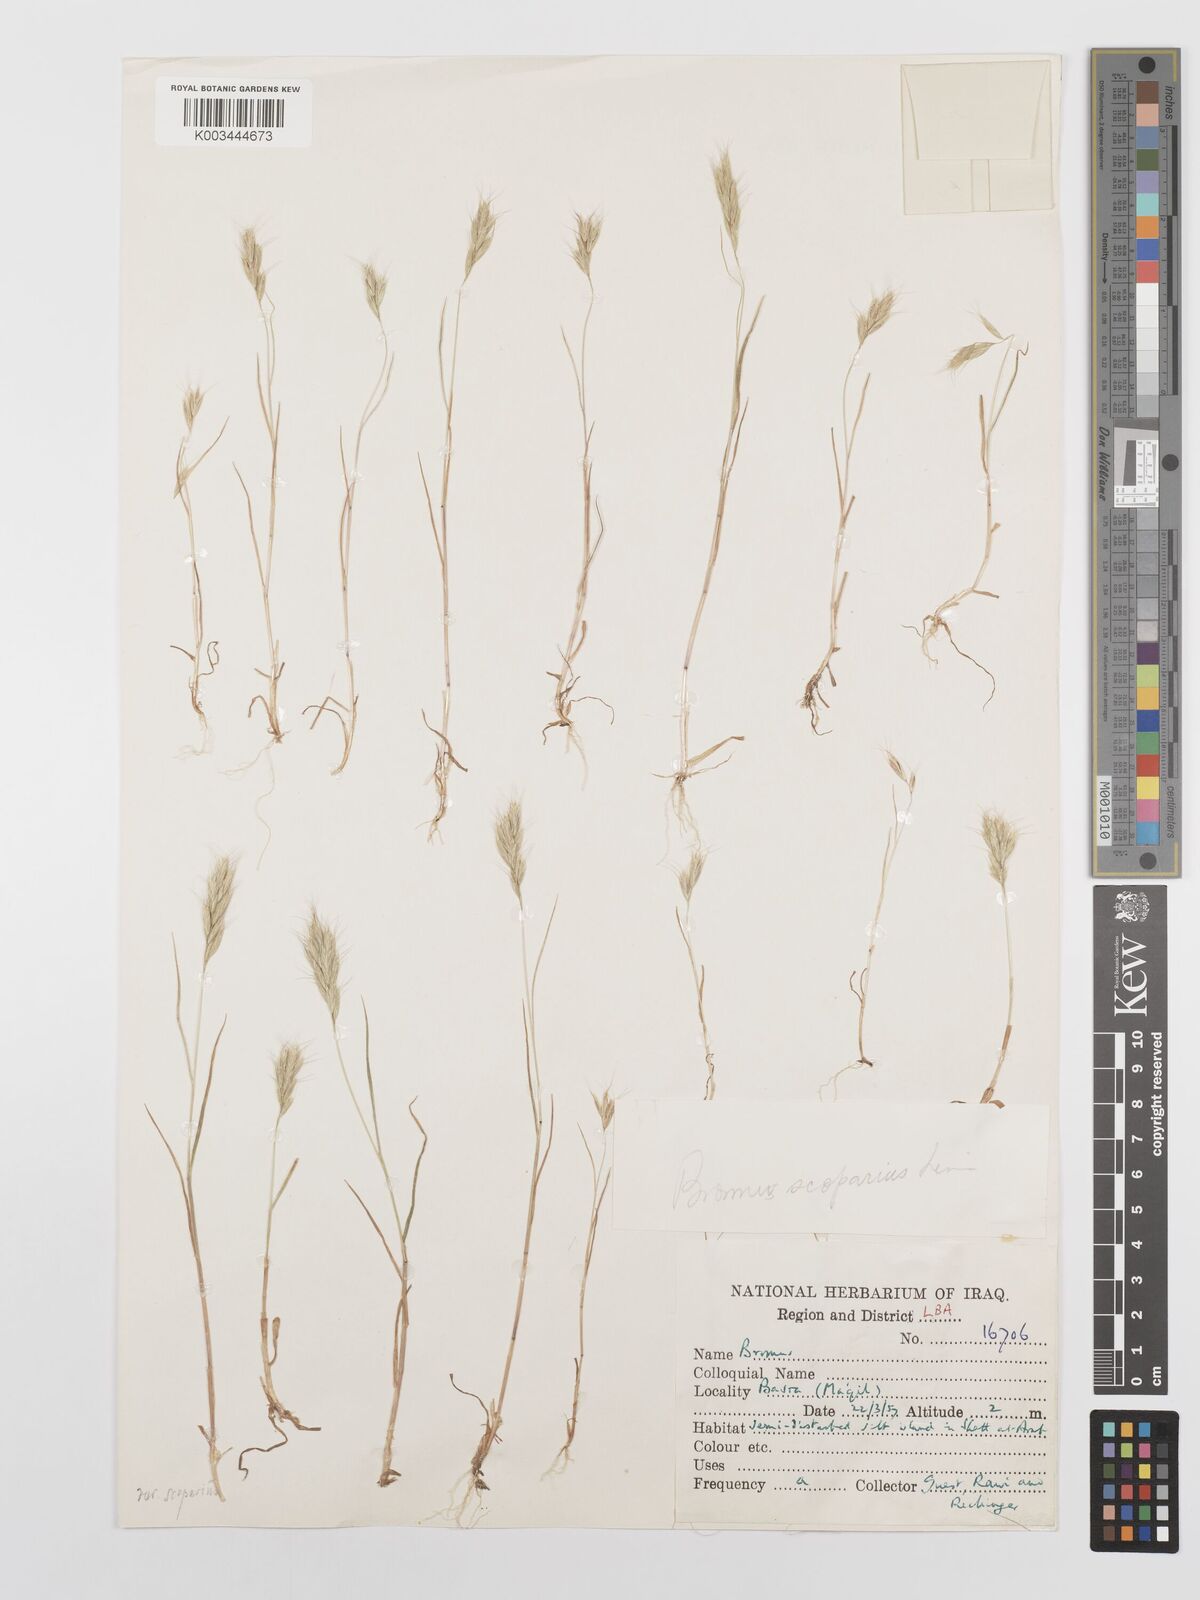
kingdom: Plantae
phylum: Tracheophyta
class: Liliopsida
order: Poales
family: Poaceae
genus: Bromus
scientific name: Bromus scoparius
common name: Broom brome
